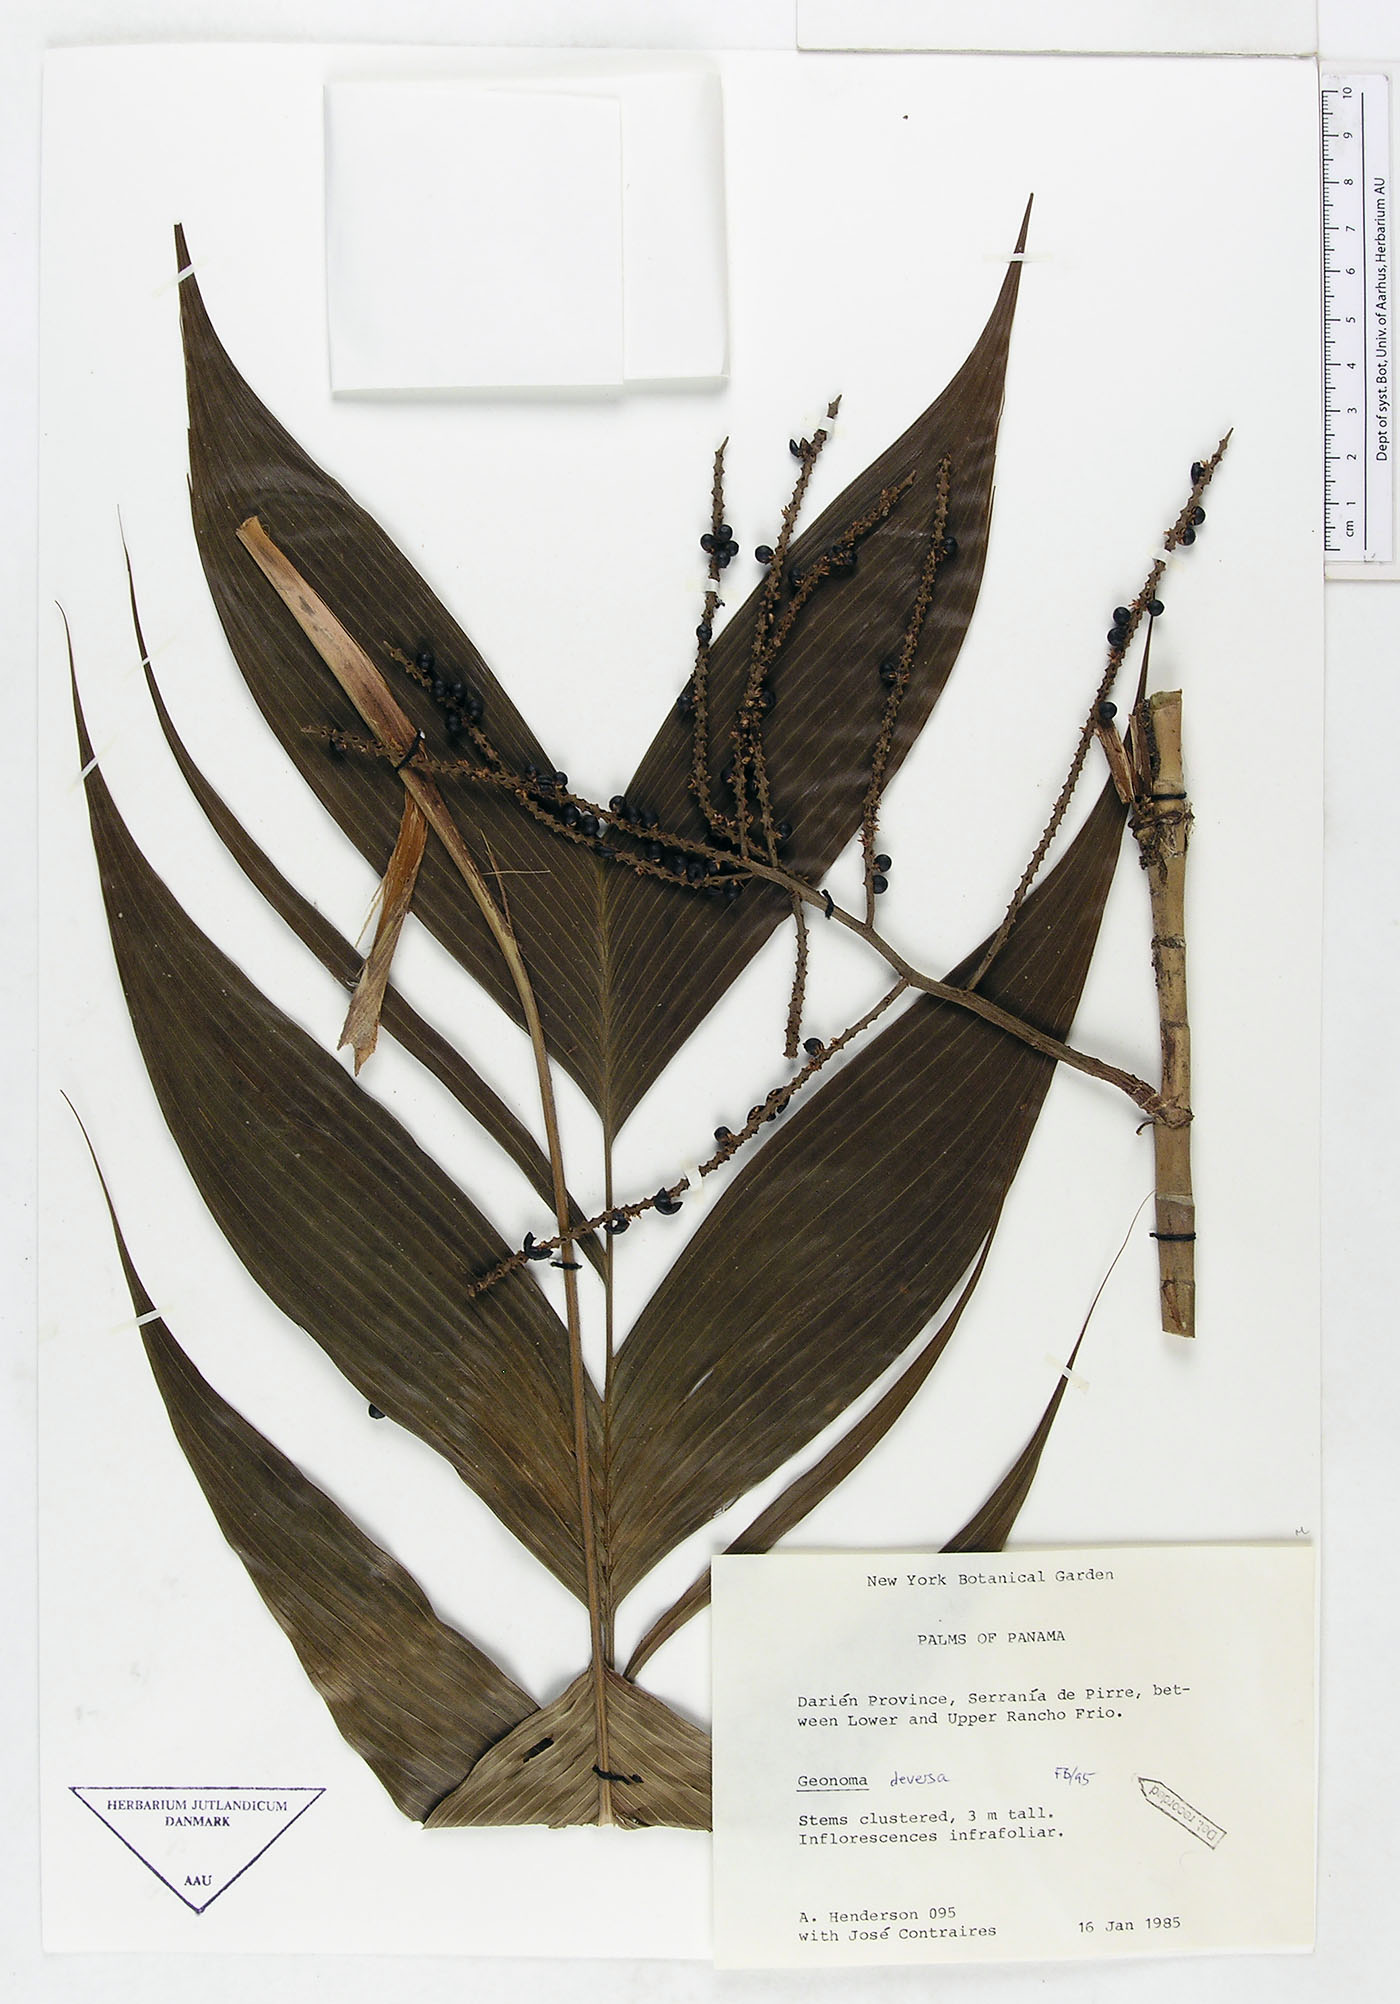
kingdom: Plantae
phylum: Tracheophyta
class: Liliopsida
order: Arecales
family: Arecaceae
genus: Geonoma
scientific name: Geonoma deversa
